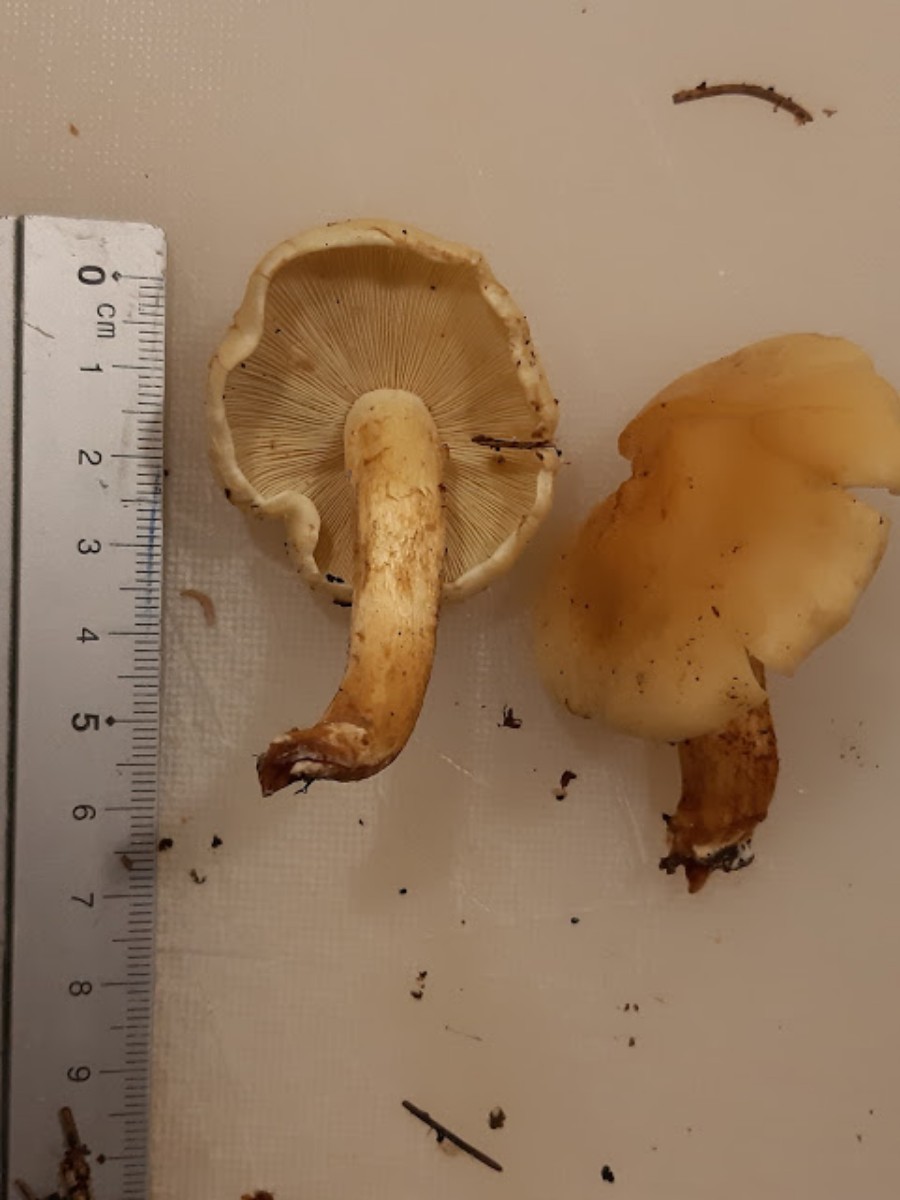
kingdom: Fungi
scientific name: Fungi
